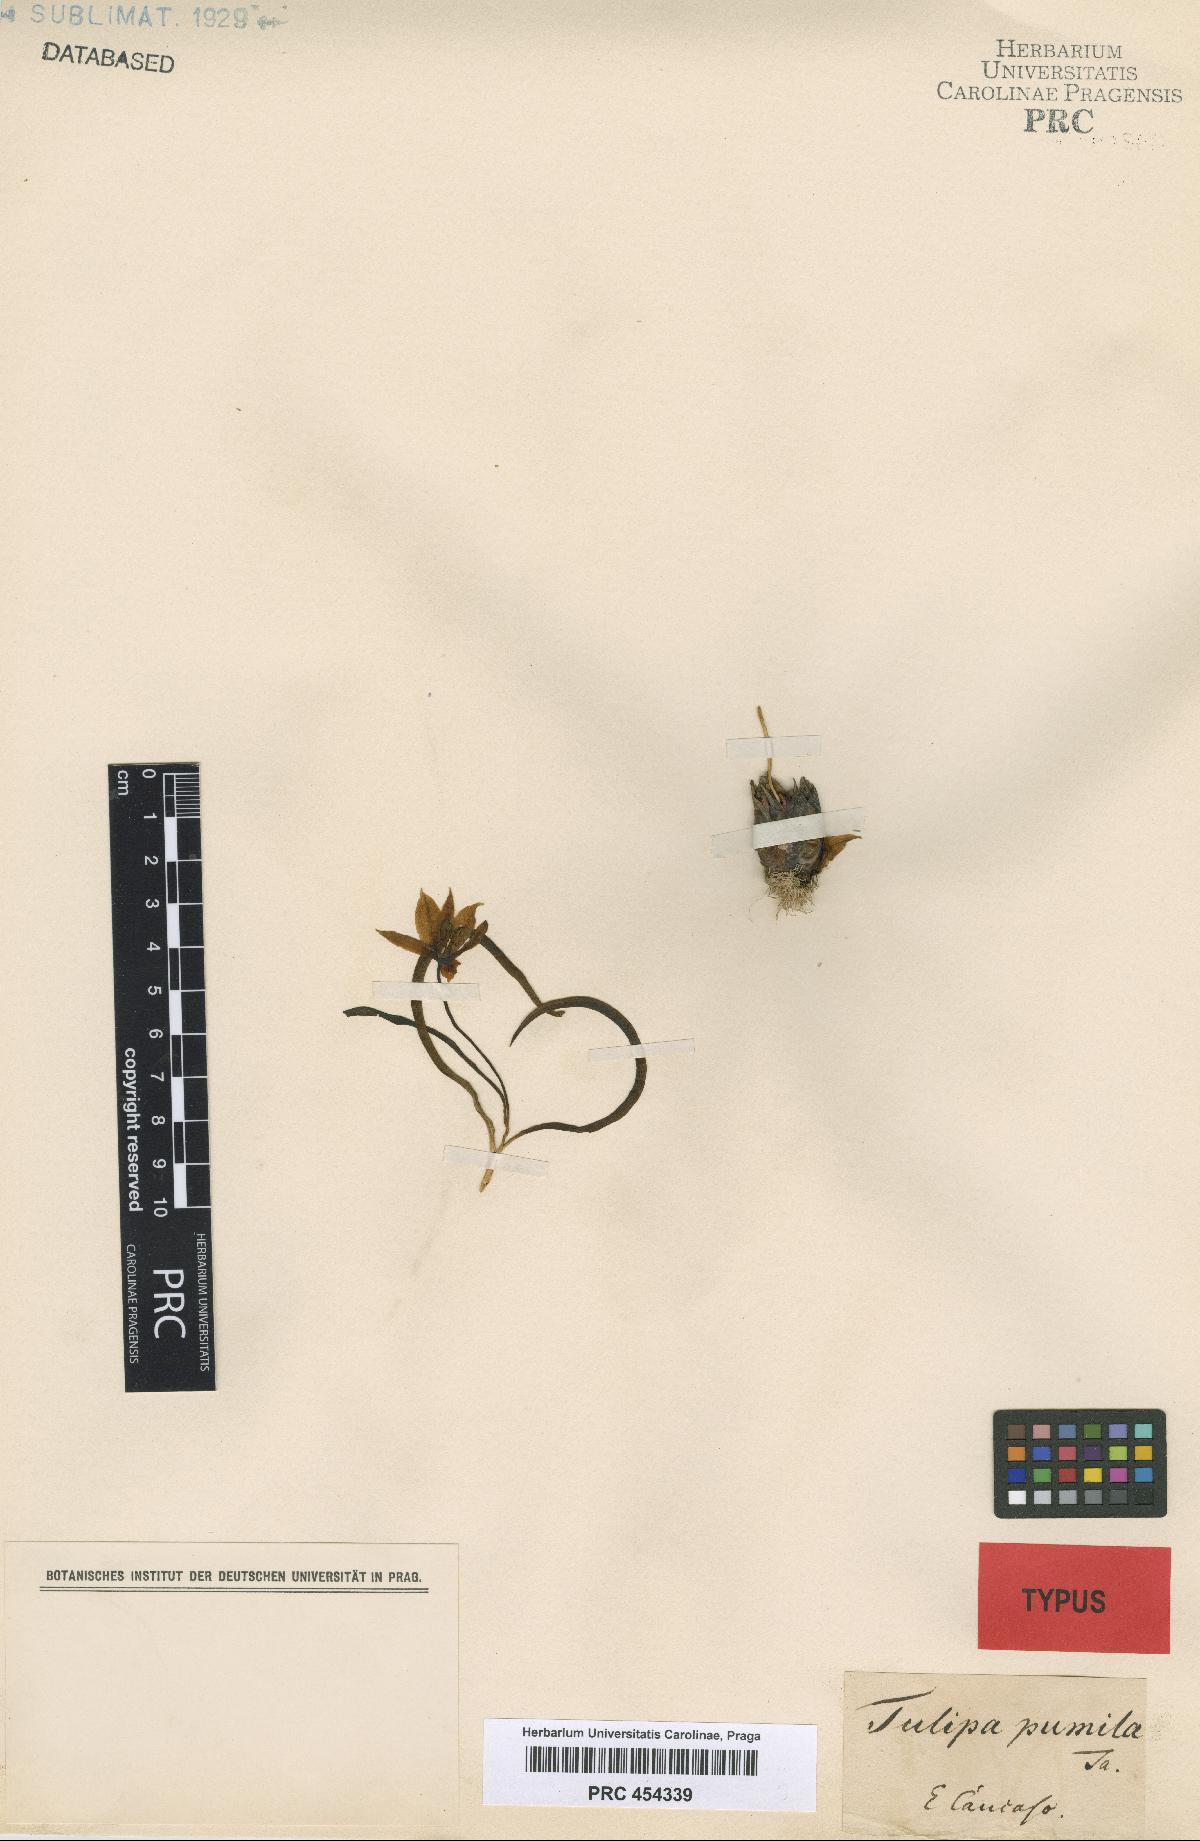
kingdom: Plantae
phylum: Tracheophyta
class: Liliopsida
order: Liliales
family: Liliaceae
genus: Tulipa
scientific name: Tulipa sylvestris
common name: Wild tulip
